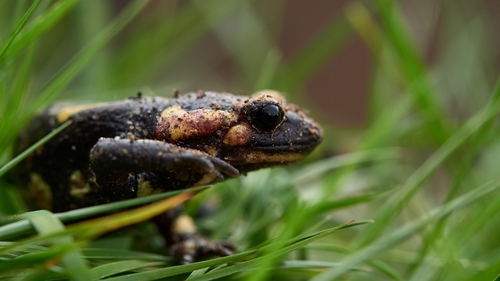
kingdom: Animalia
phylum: Chordata
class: Amphibia
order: Caudata
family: Salamandridae
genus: Salamandra
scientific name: Salamandra salamandra
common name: Fire salamander
